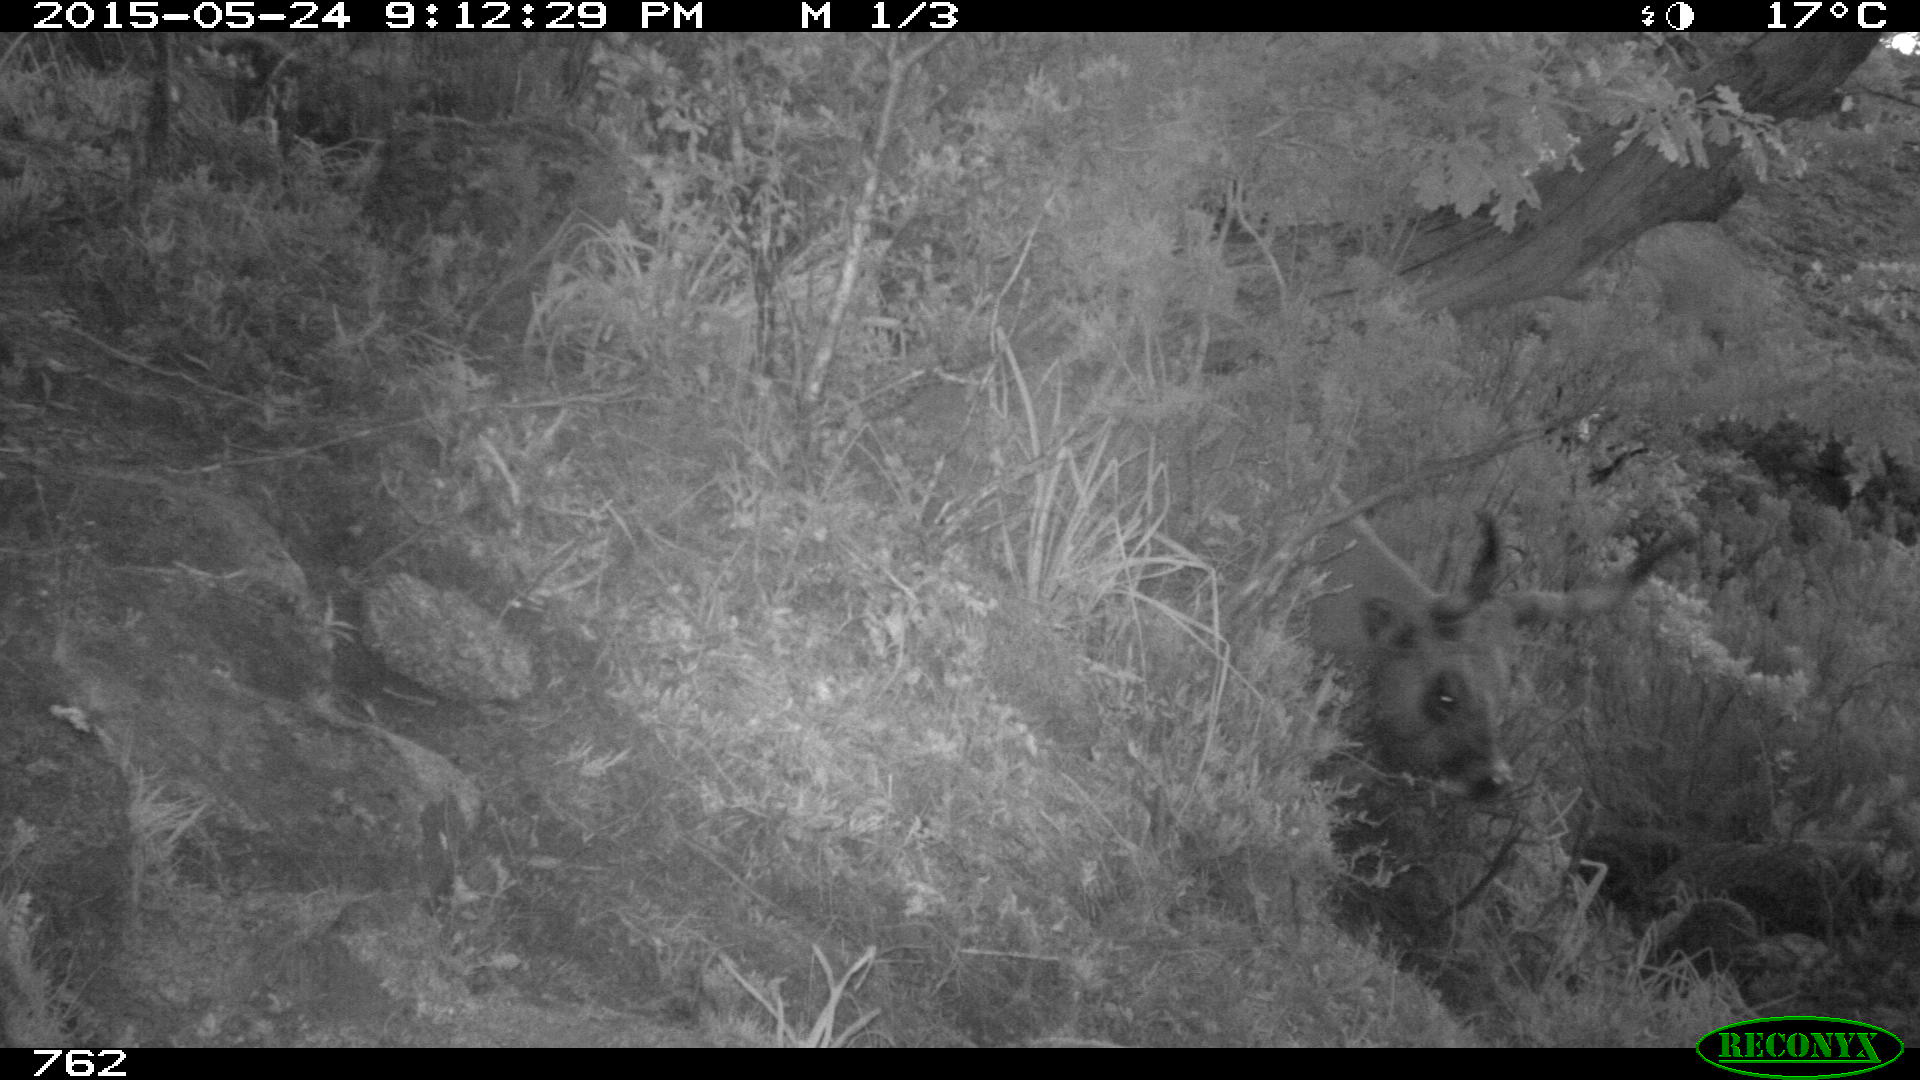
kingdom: Animalia
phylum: Chordata
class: Mammalia
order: Artiodactyla
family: Bovidae
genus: Bos
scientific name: Bos taurus
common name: Domesticated cattle
